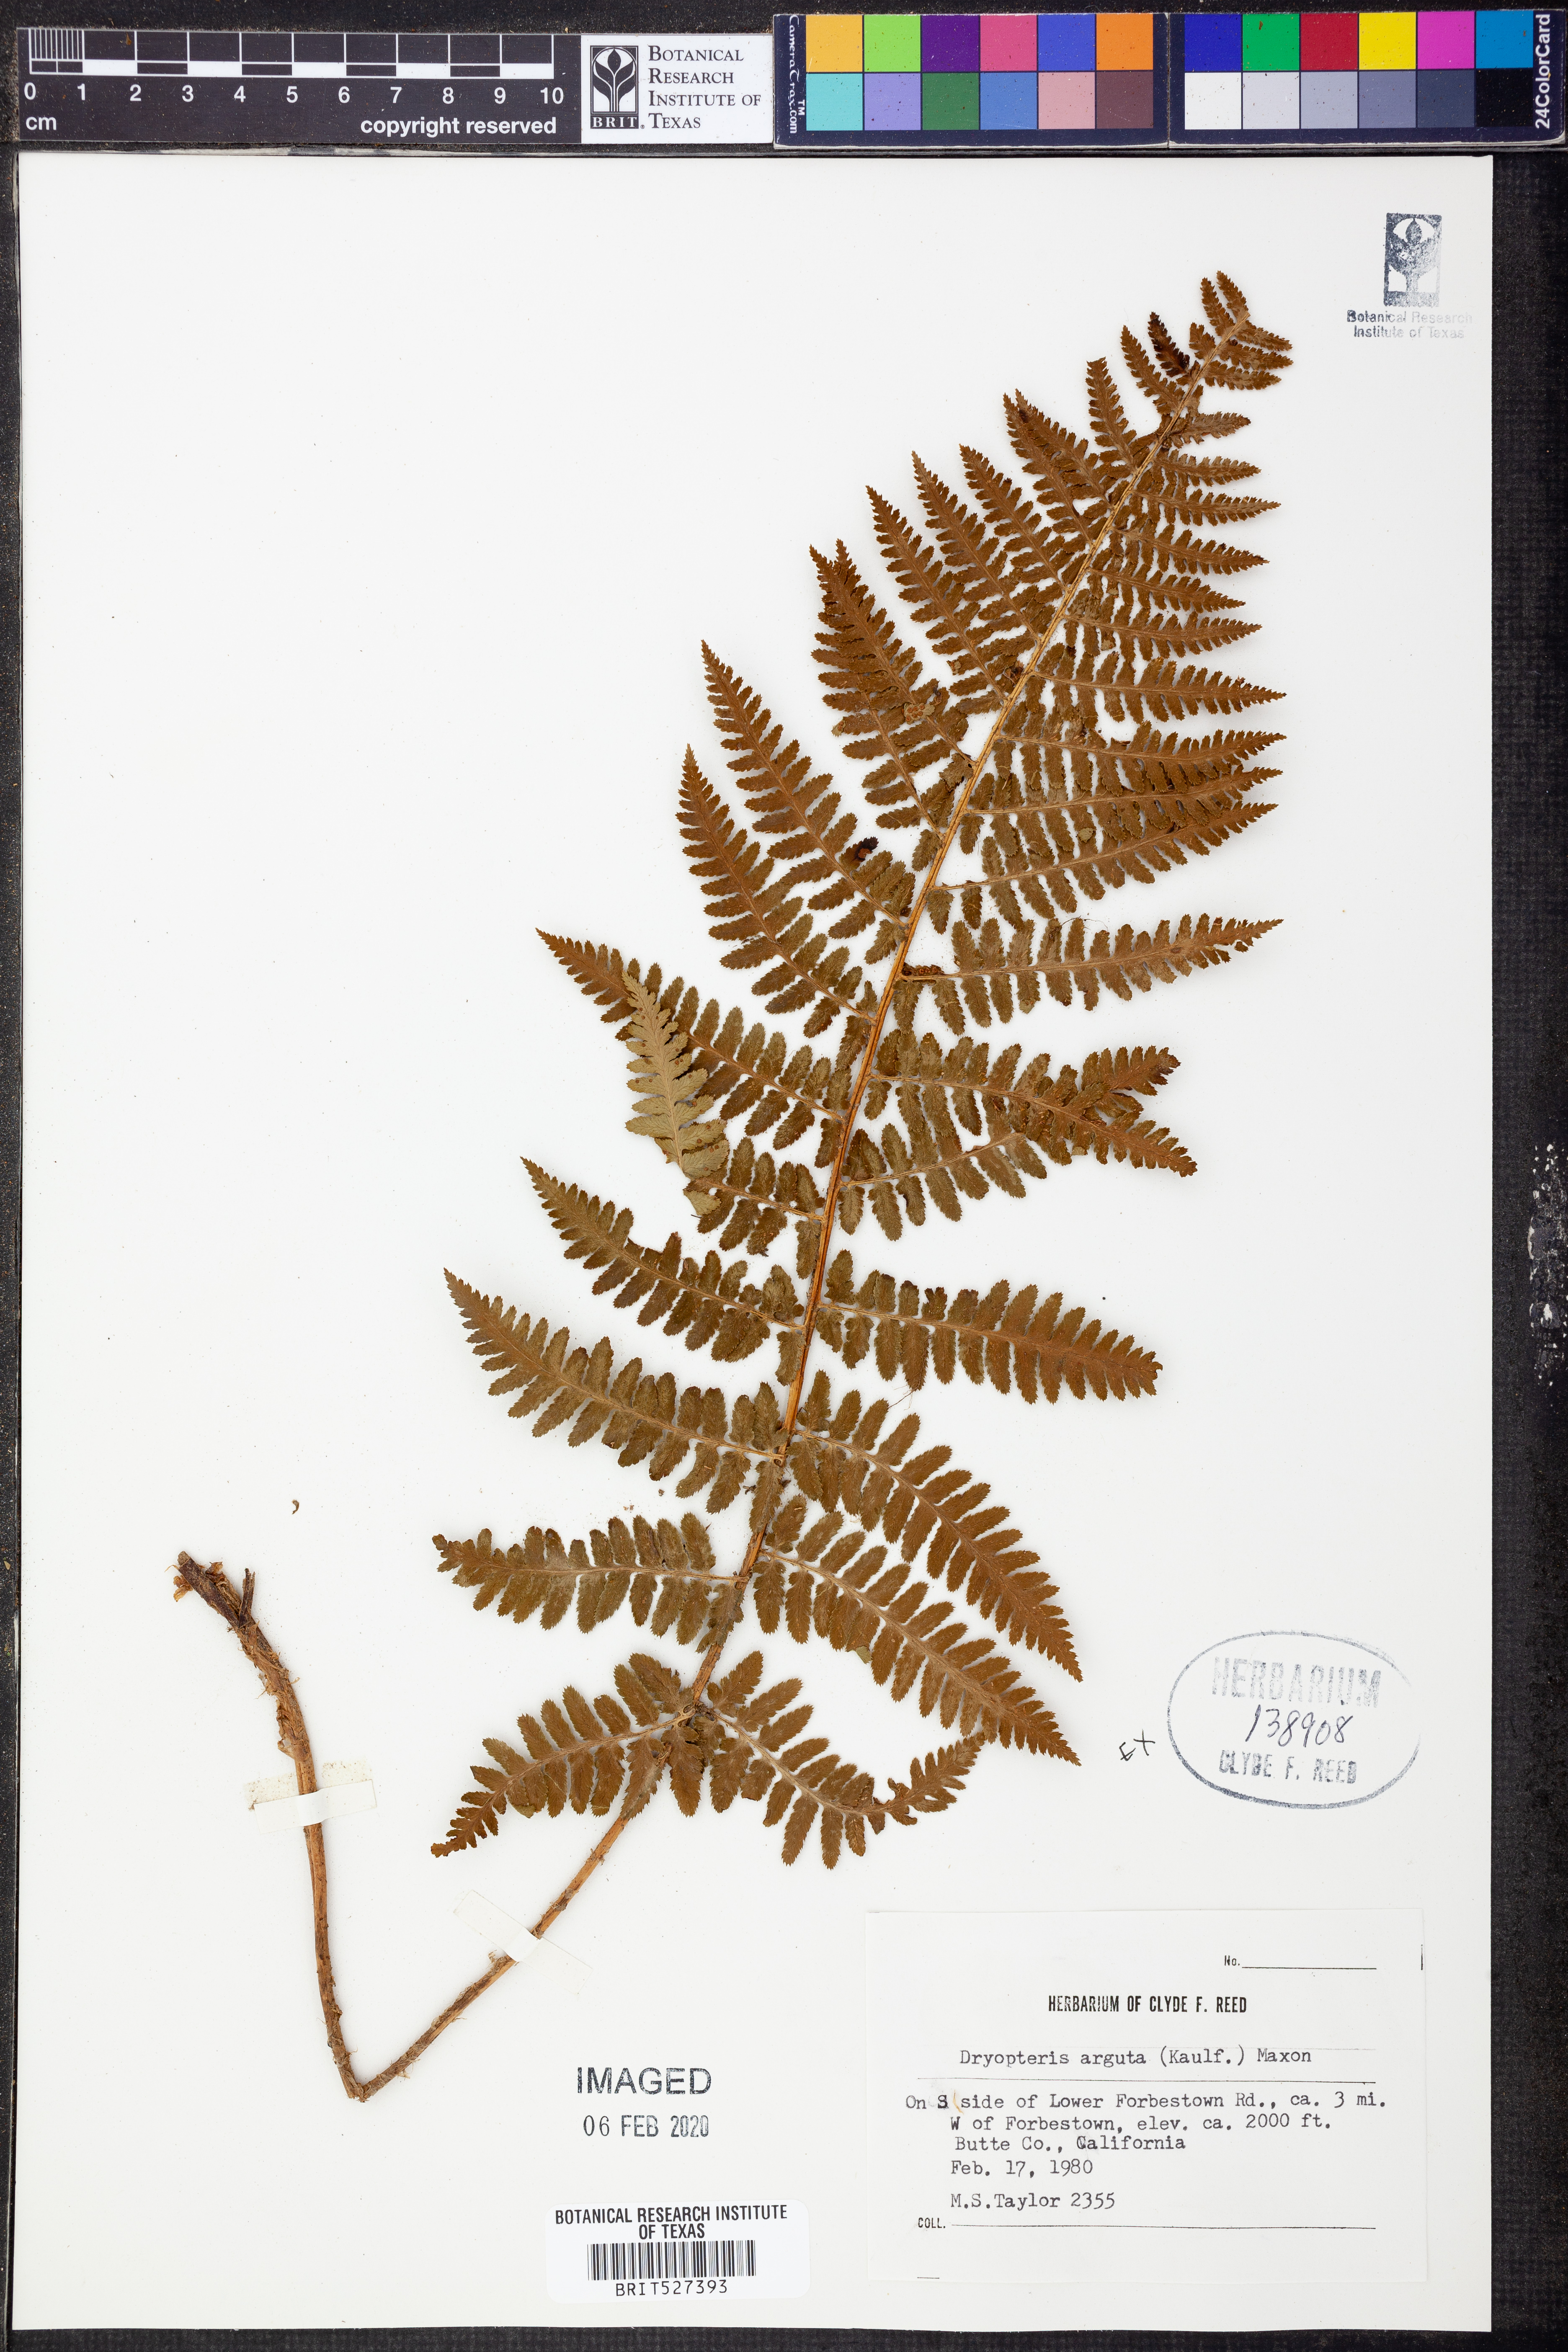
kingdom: Plantae
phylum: Tracheophyta
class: Polypodiopsida
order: Polypodiales
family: Dryopteridaceae
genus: Dryopteris
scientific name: Dryopteris arguta
